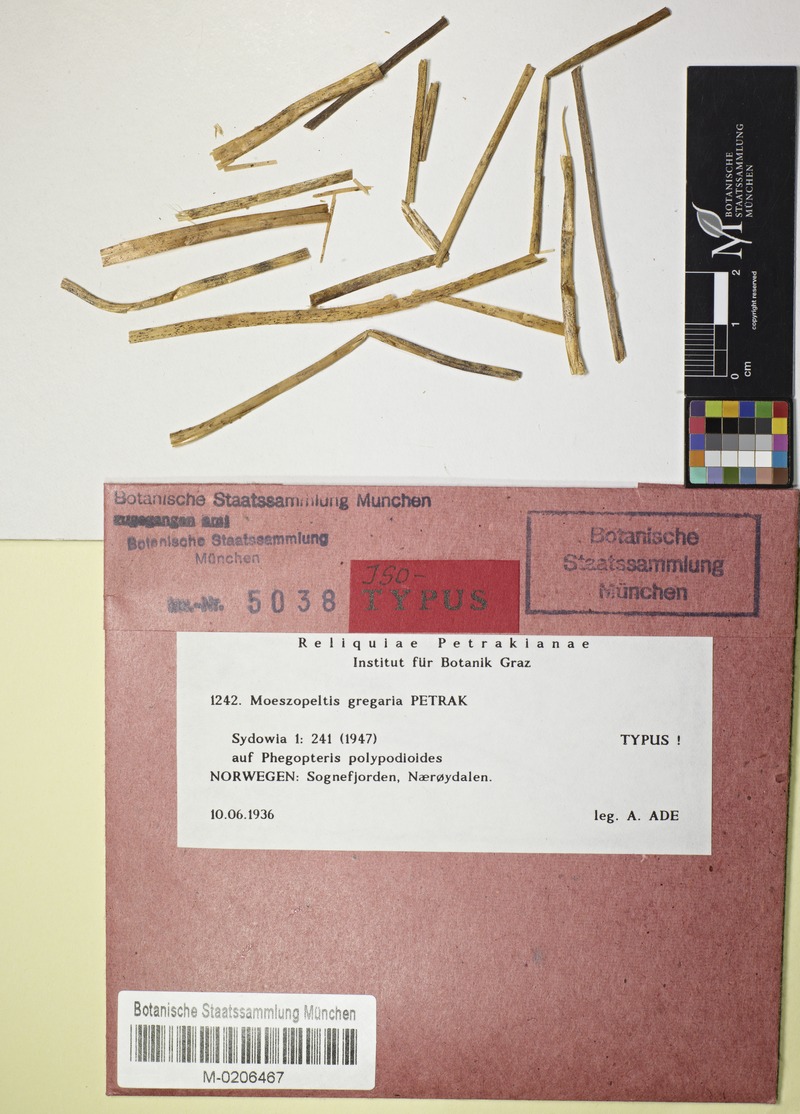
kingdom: Fungi
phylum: Ascomycota
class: Dothideomycetes
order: Microthyriales
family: Leptopeltidaceae
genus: Leptopeltis
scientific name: Leptopeltis gregaria
